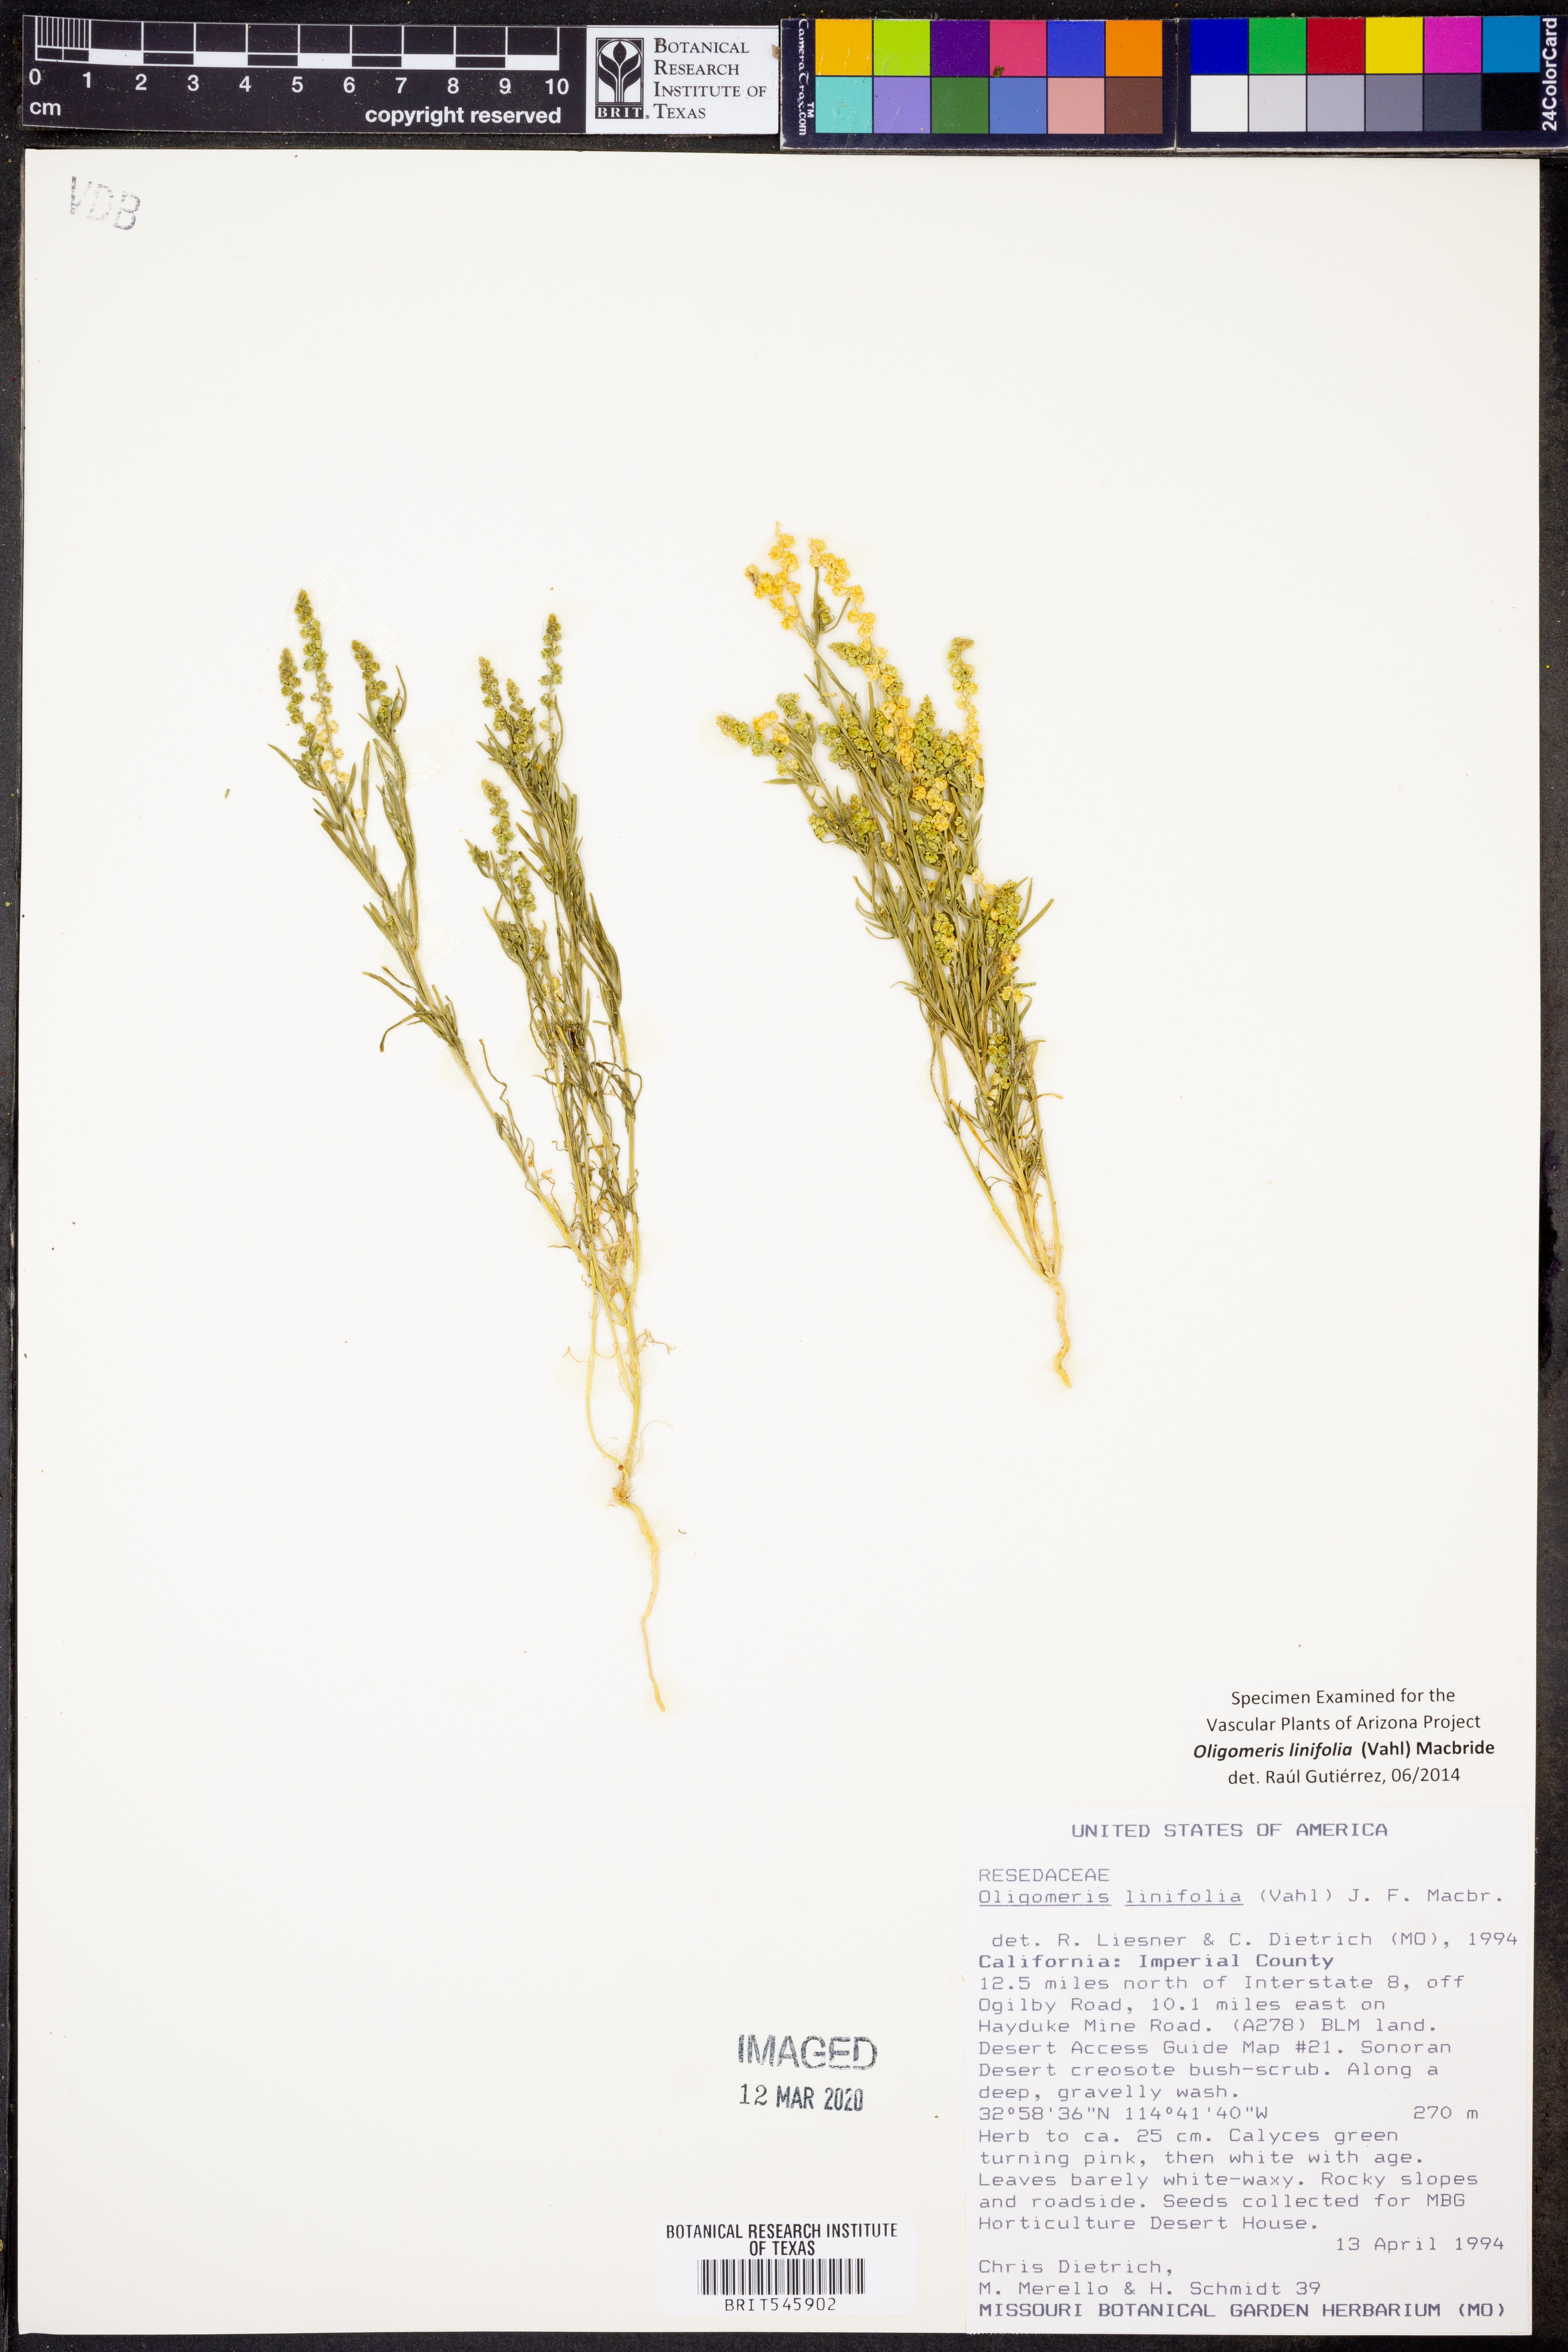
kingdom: Plantae
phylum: Tracheophyta
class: Magnoliopsida
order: Brassicales
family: Resedaceae
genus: Oligomeris
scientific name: Oligomeris linifolia
